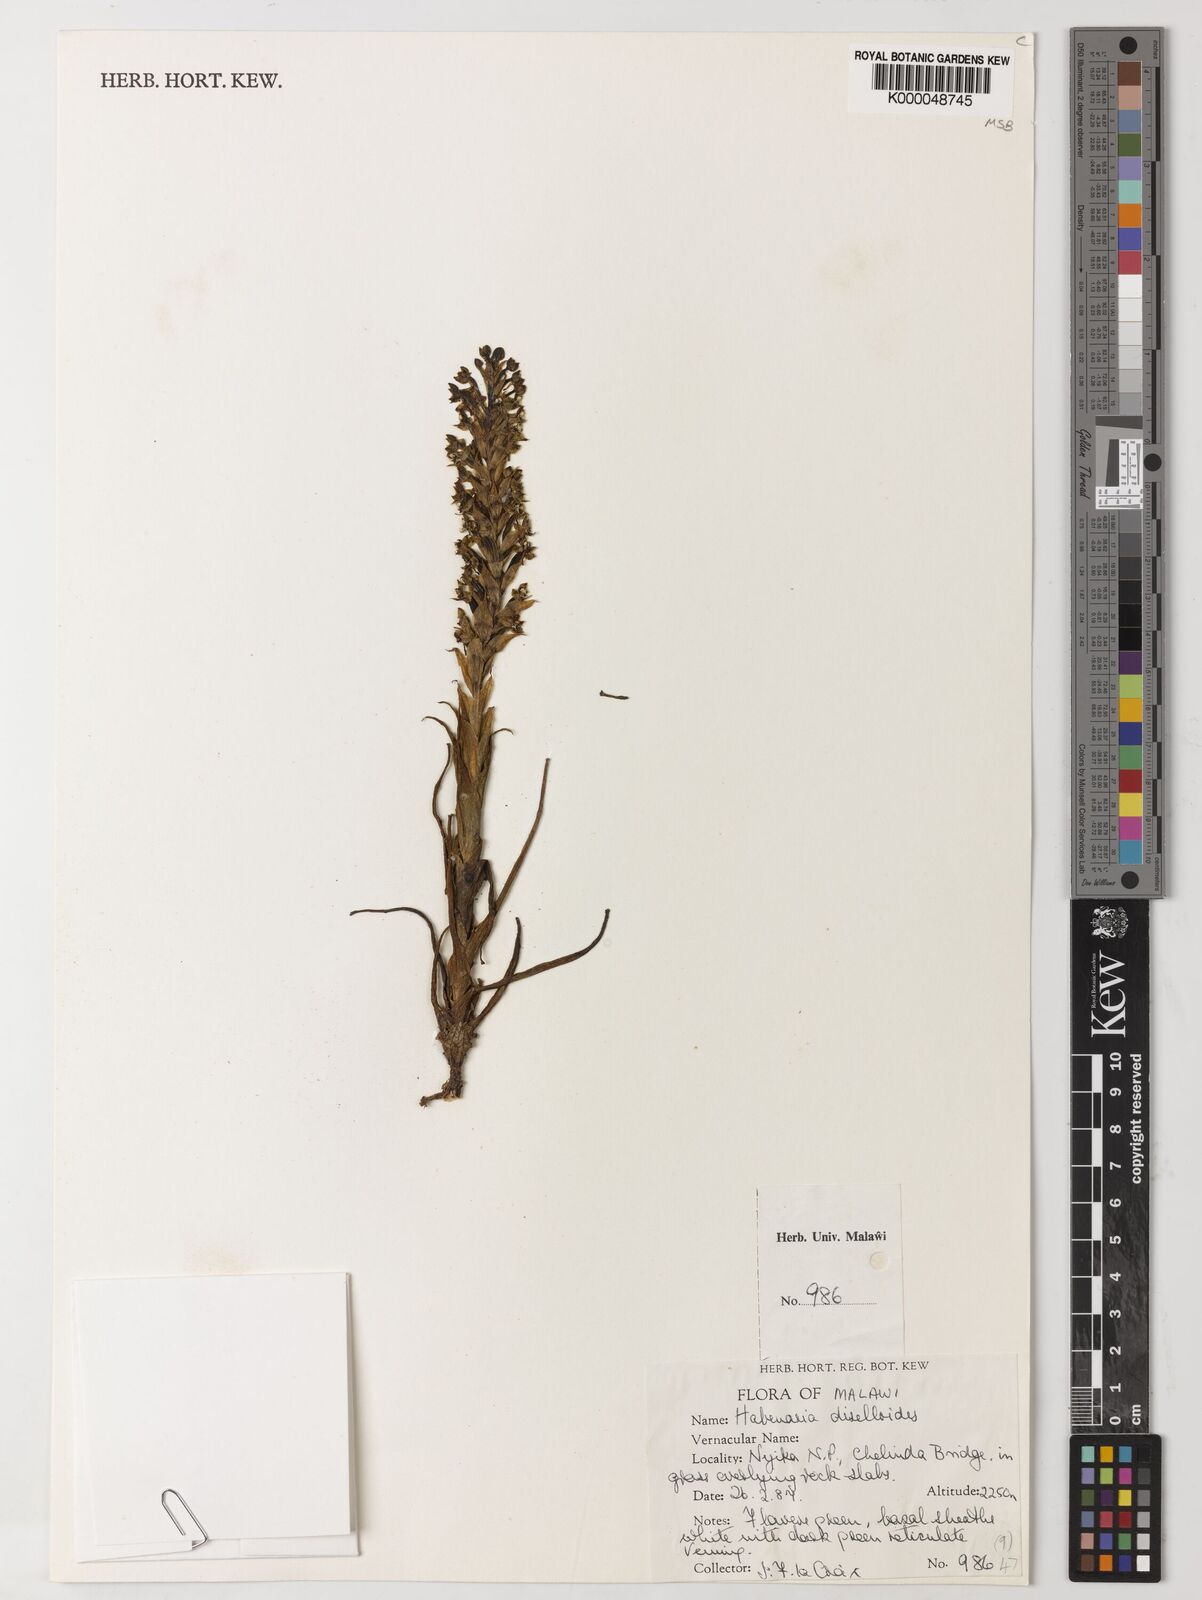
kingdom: Plantae
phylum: Tracheophyta
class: Liliopsida
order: Asparagales
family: Orchidaceae
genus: Habenaria
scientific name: Habenaria diselloides
